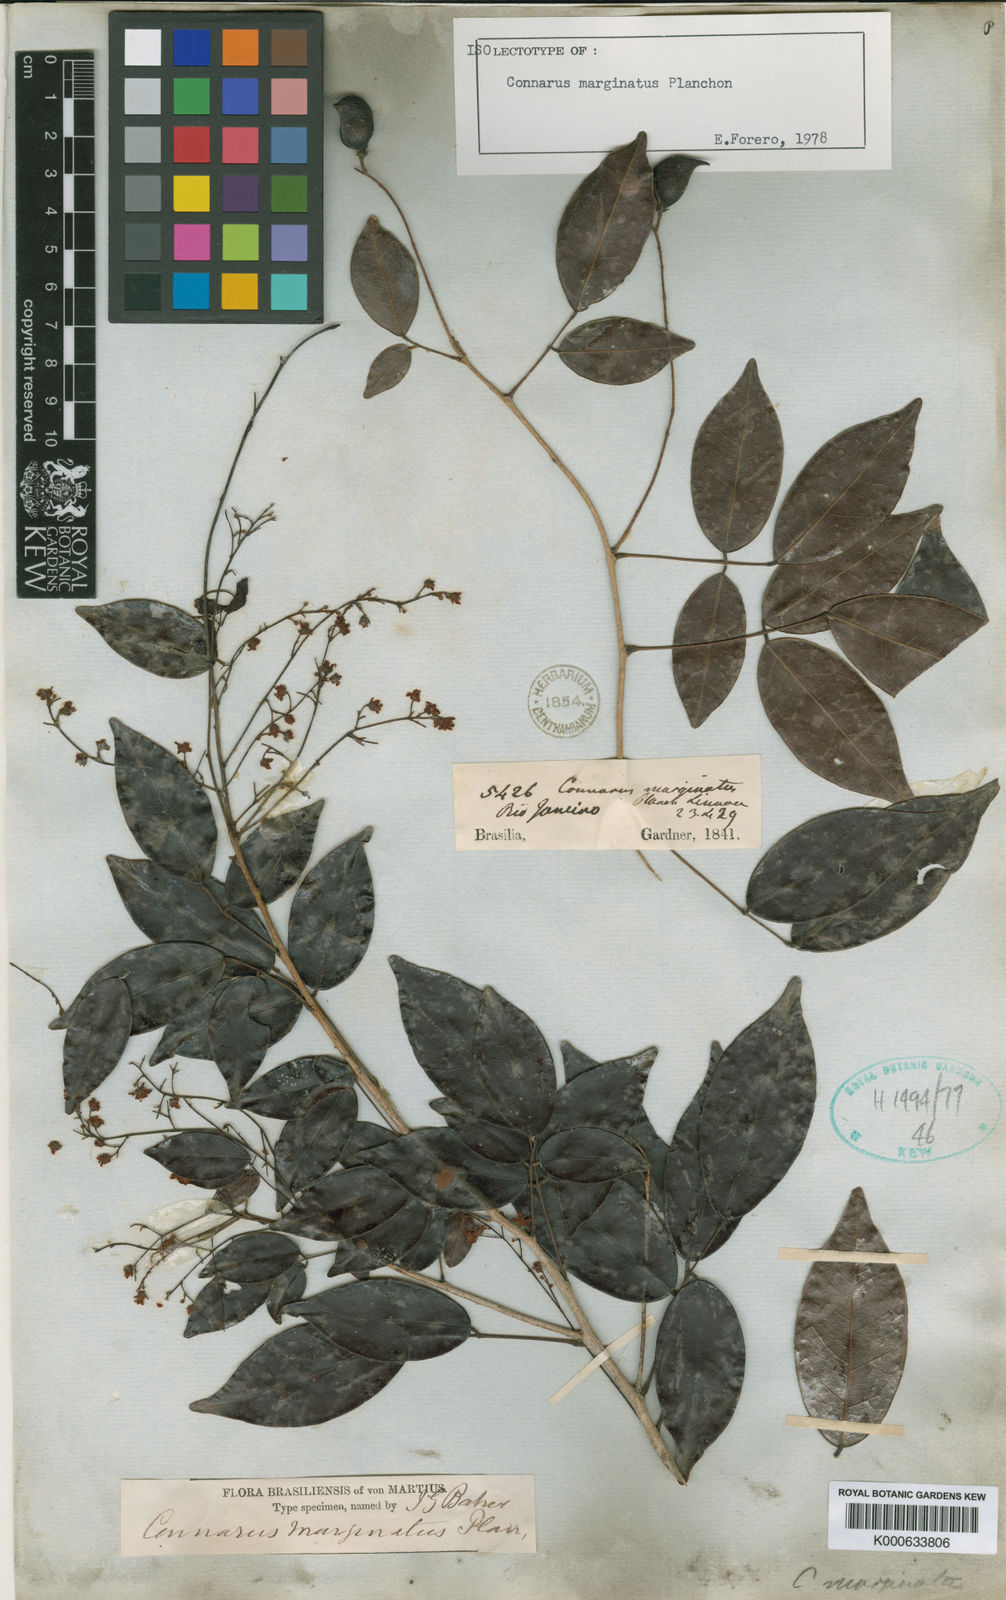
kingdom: Plantae
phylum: Tracheophyta
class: Magnoliopsida
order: Oxalidales
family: Connaraceae
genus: Connarus
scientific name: Connarus marginatus
